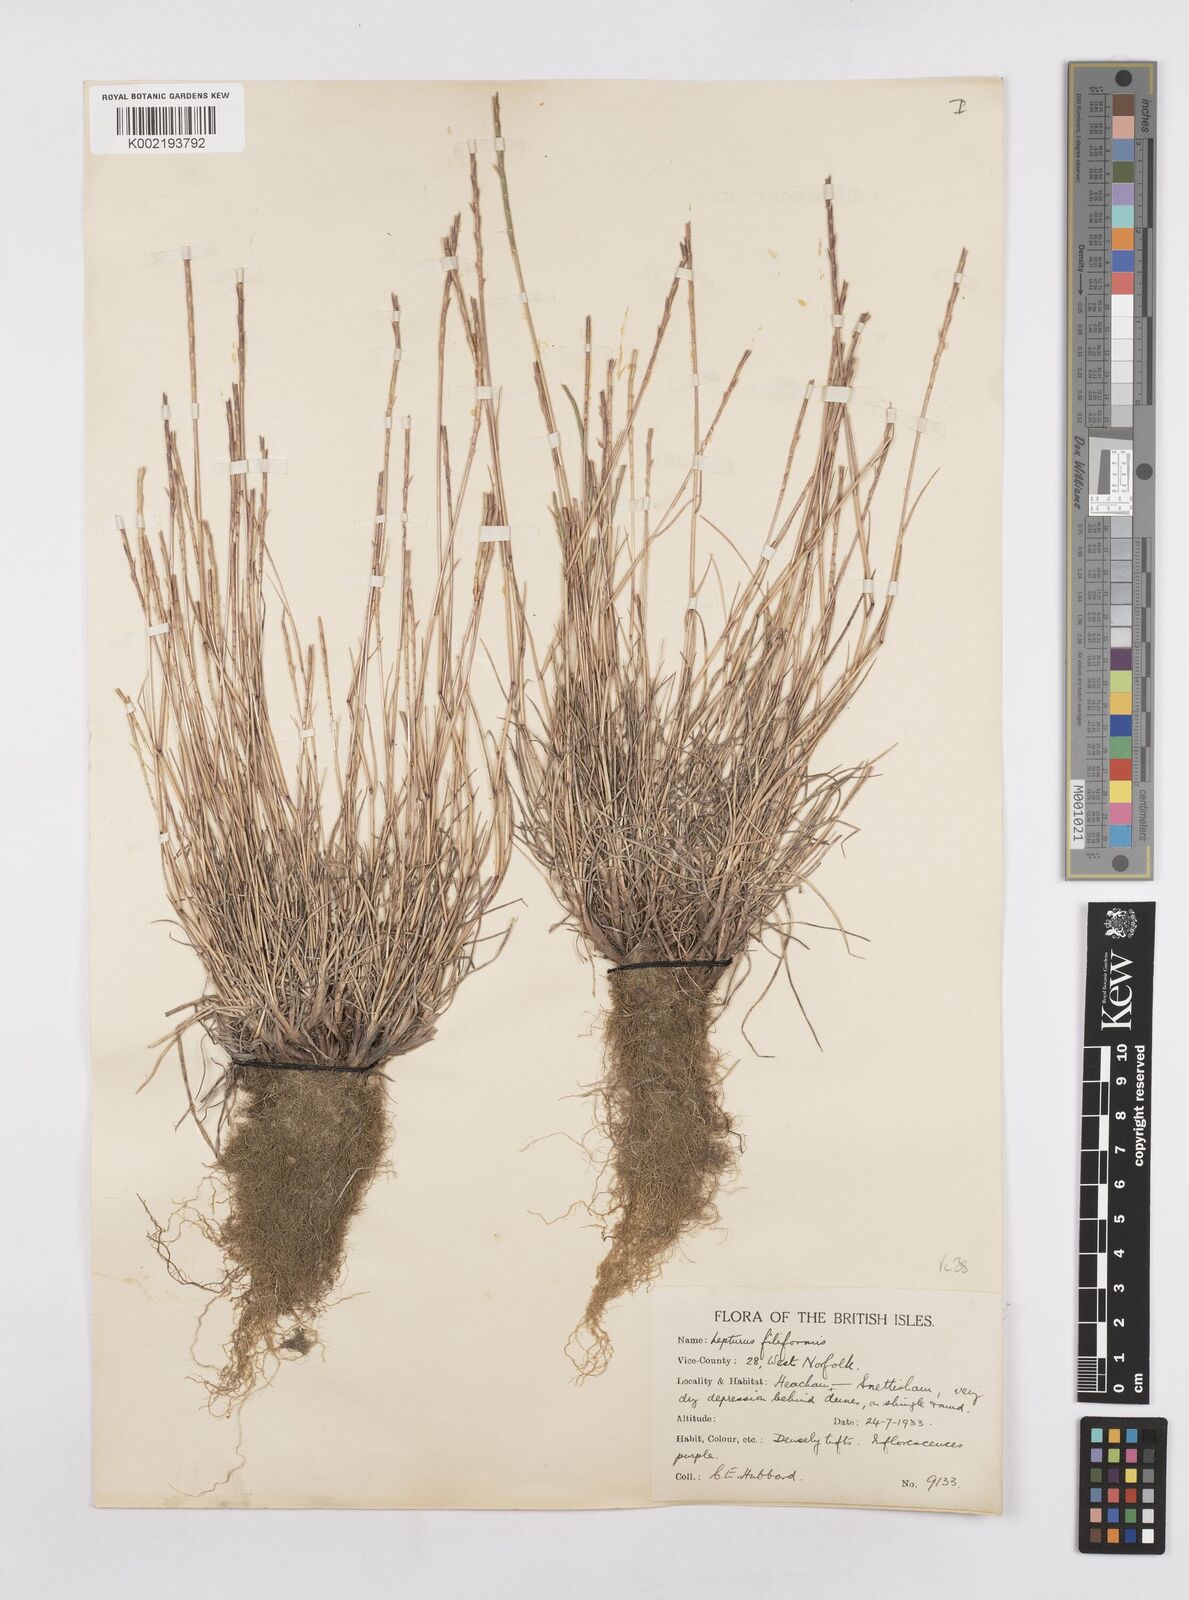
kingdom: Plantae
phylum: Tracheophyta
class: Liliopsida
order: Poales
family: Poaceae
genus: Parapholis
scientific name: Parapholis
